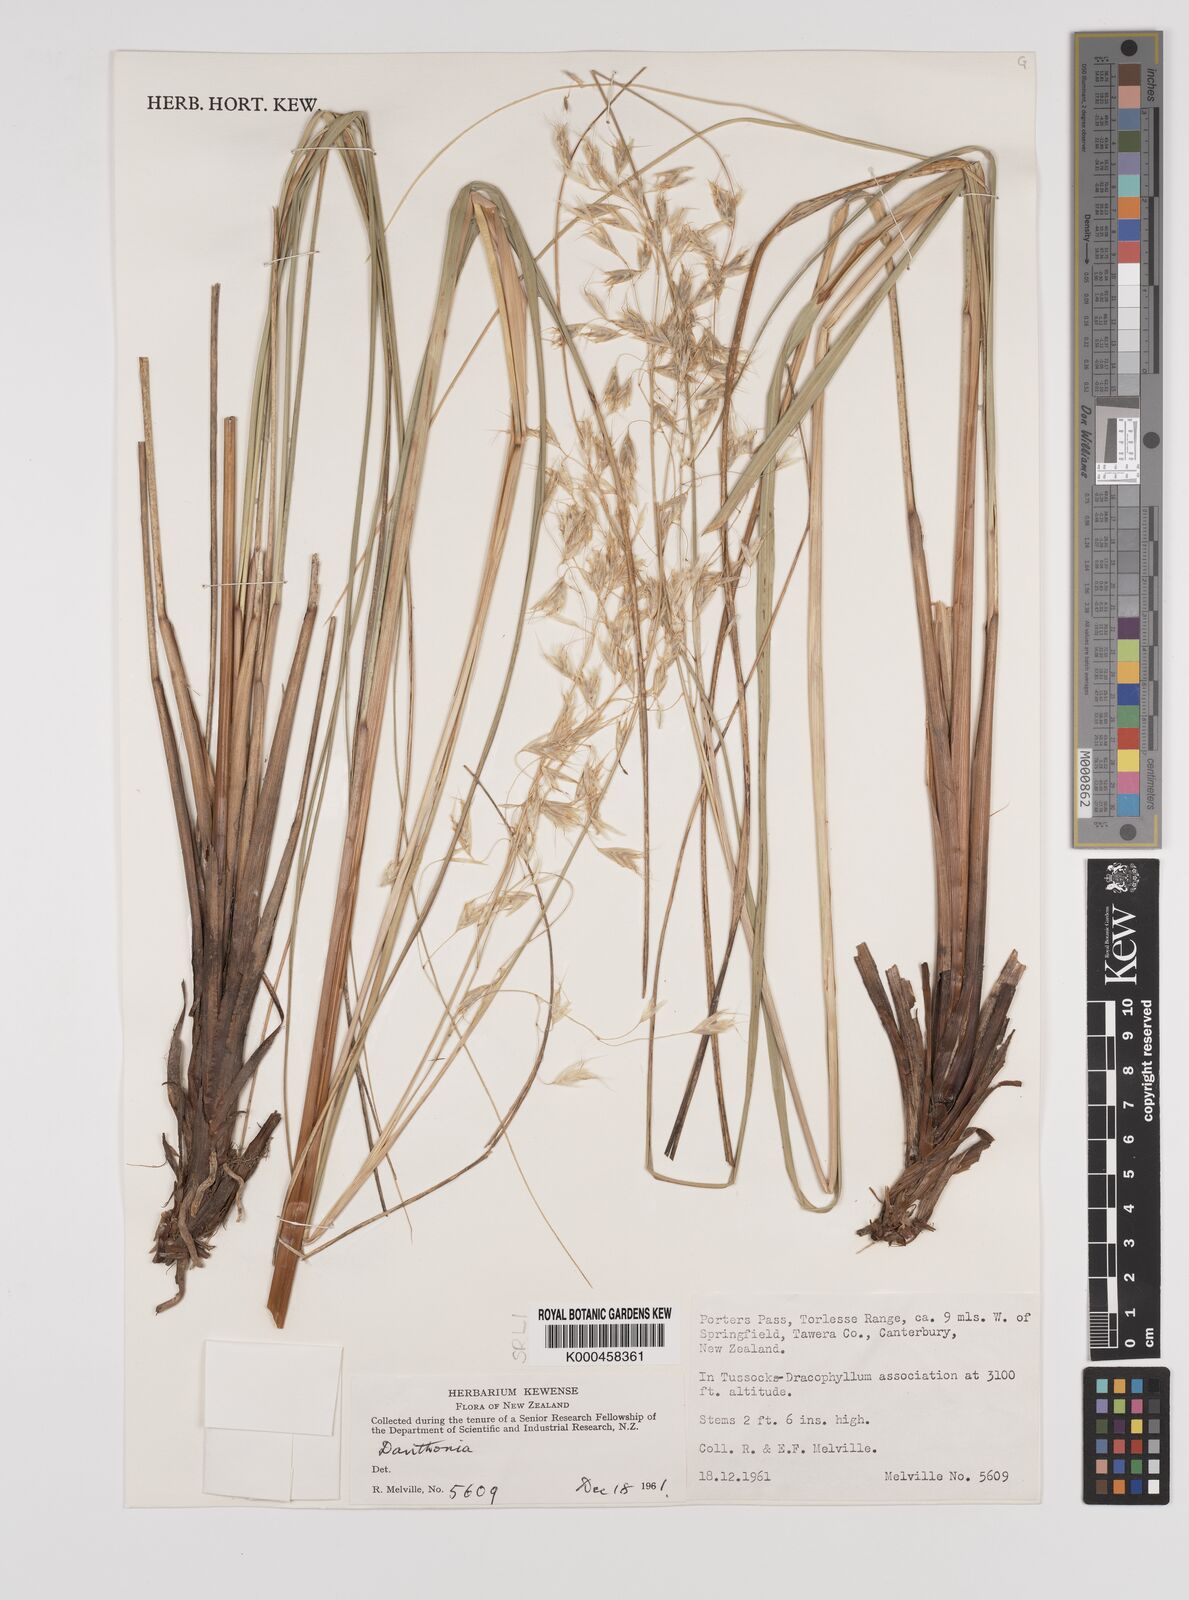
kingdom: Plantae
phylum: Tracheophyta
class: Liliopsida
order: Poales
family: Poaceae
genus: Chionochloa
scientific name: Chionochloa rigida
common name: Narrow leaved snow tussock
